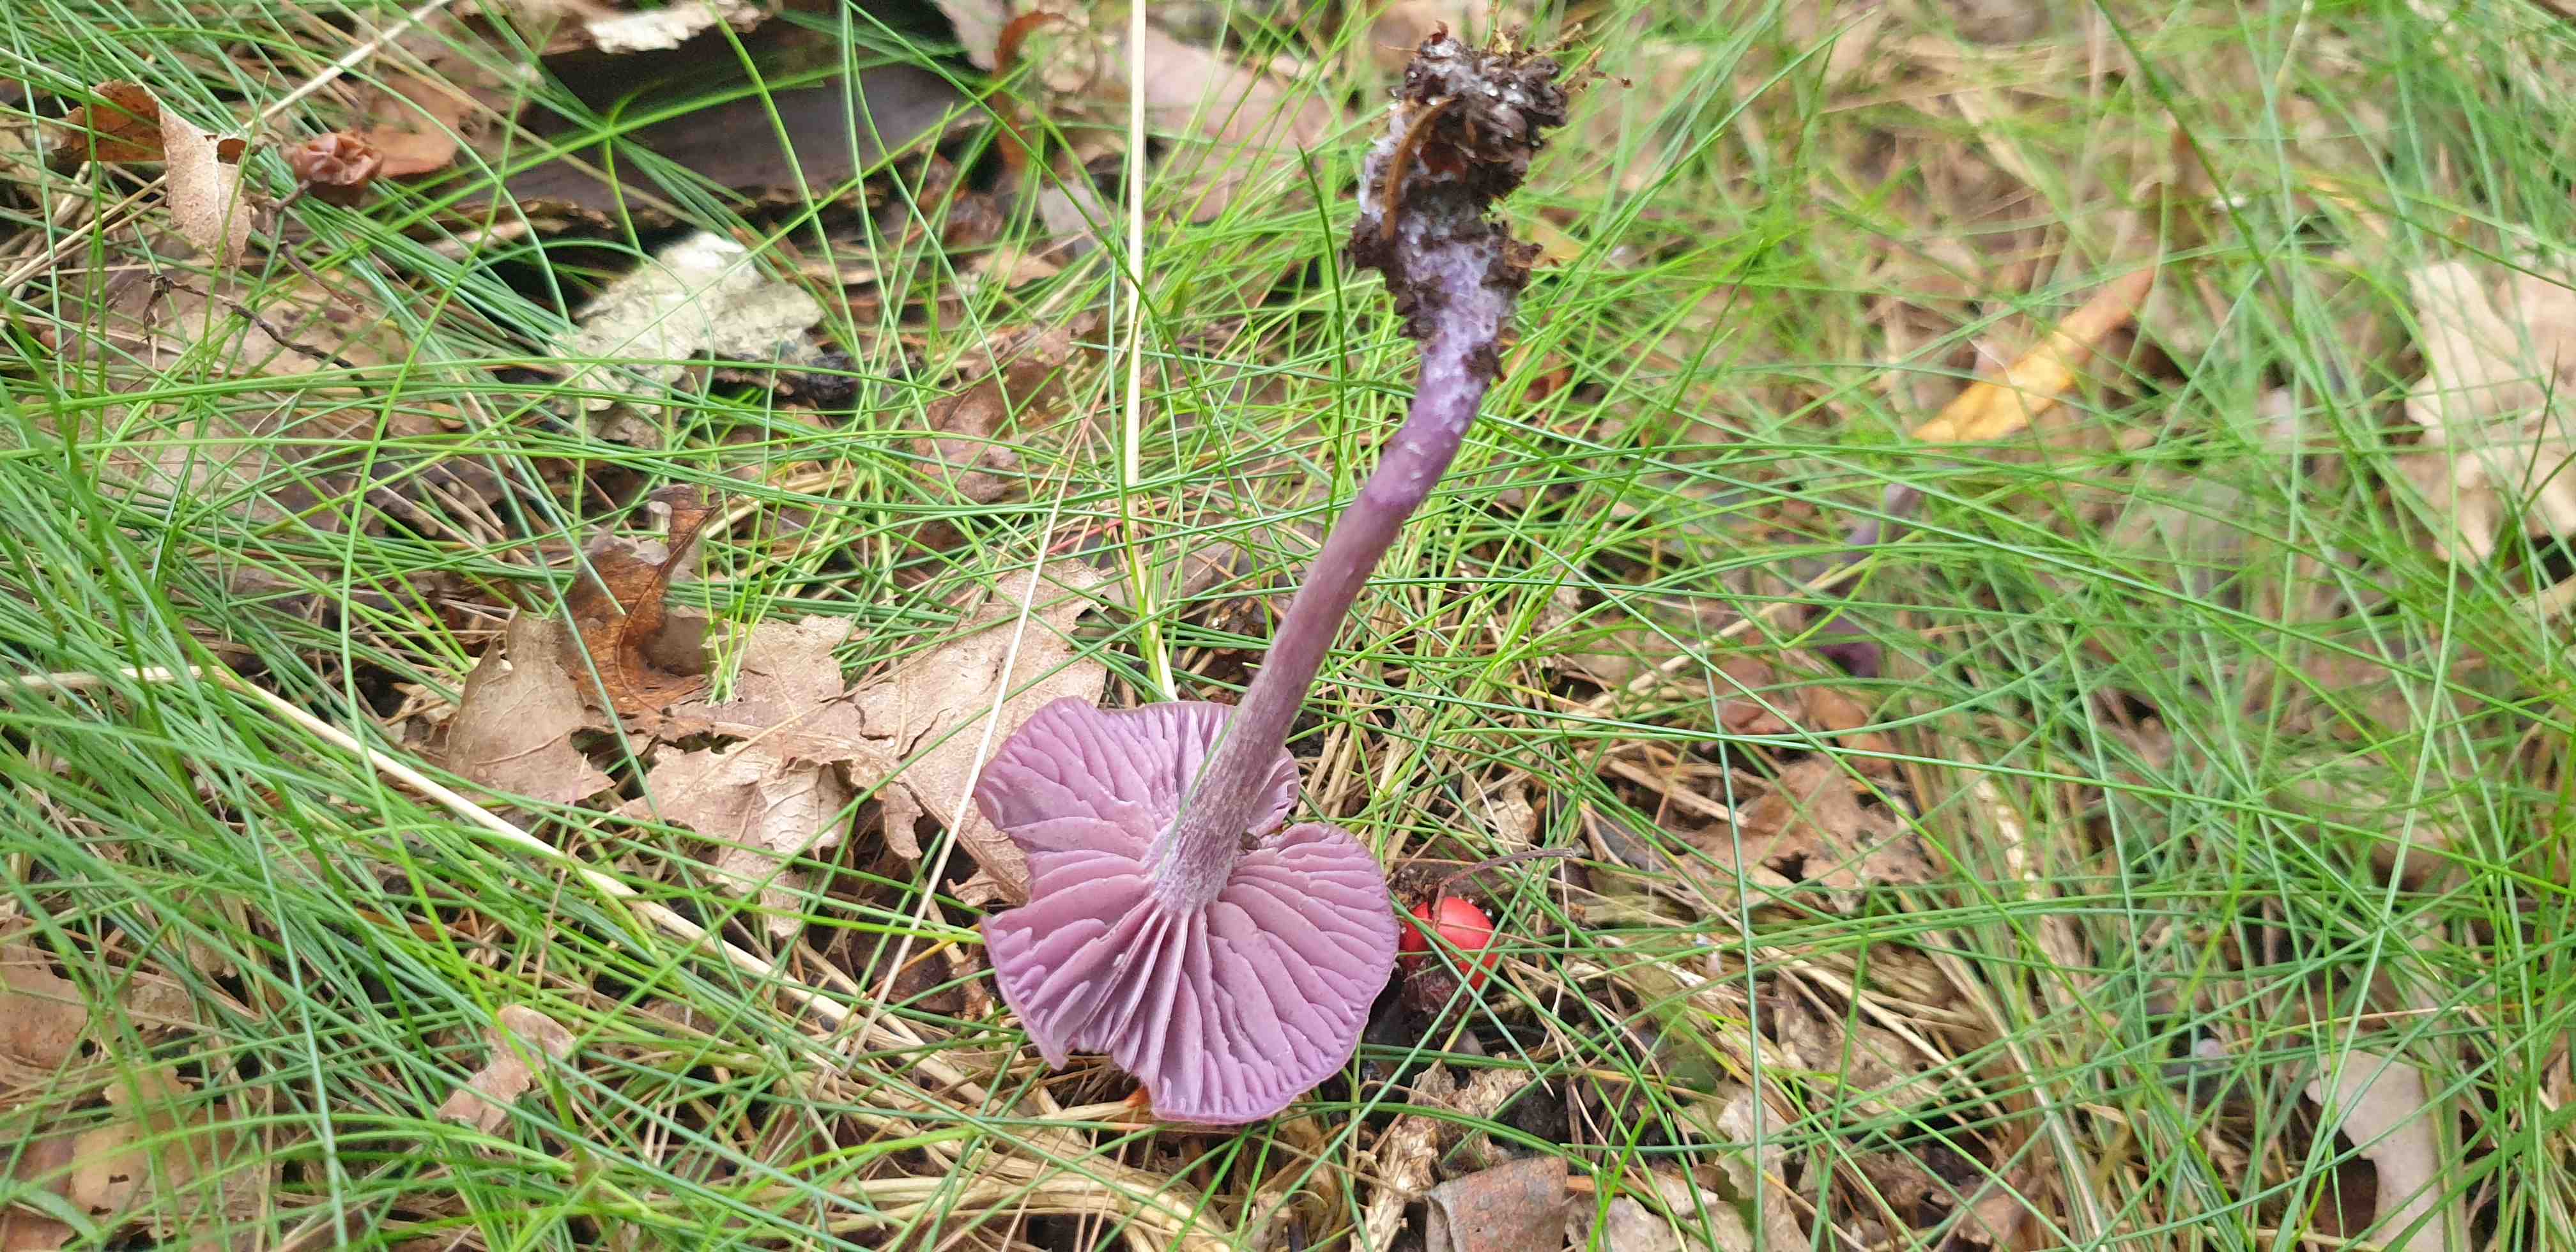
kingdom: Fungi
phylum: Basidiomycota
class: Agaricomycetes
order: Agaricales
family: Hydnangiaceae
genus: Laccaria
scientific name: Laccaria amethystina
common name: violet ametysthat
